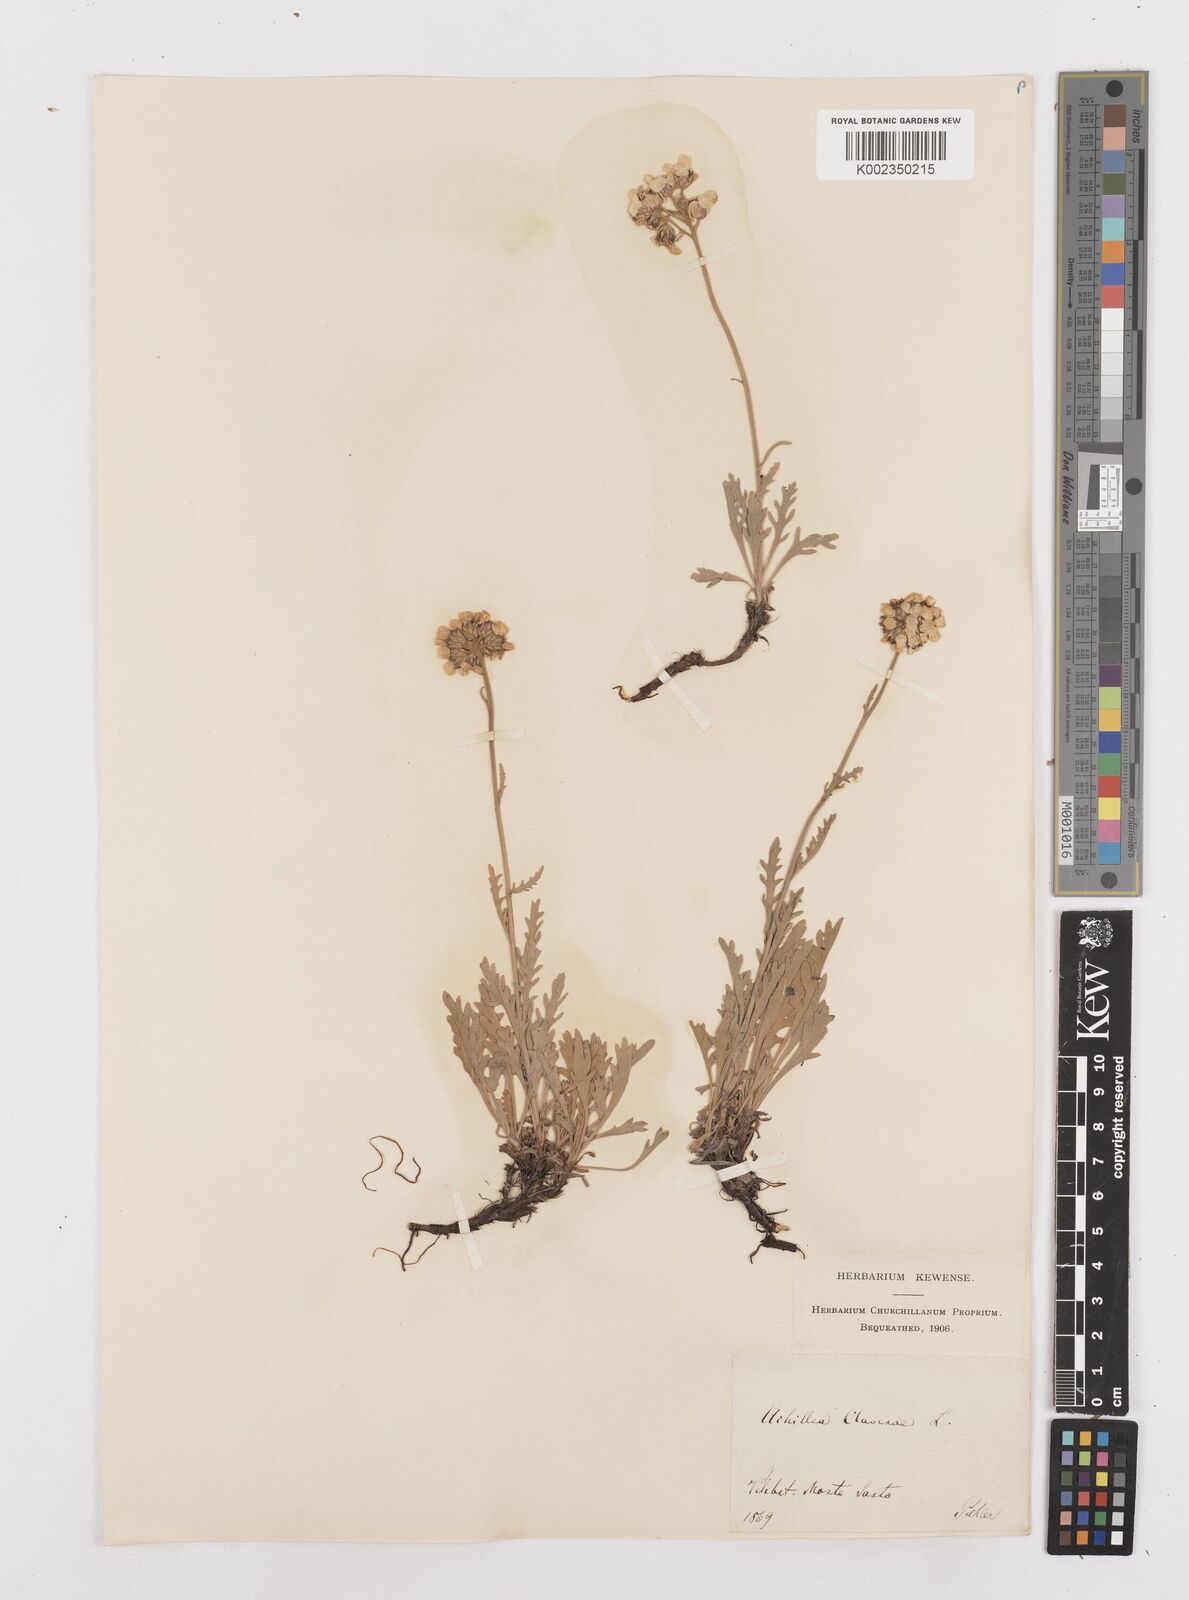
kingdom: Plantae
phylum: Tracheophyta
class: Magnoliopsida
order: Asterales
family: Asteraceae
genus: Achillea
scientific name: Achillea clavennae
